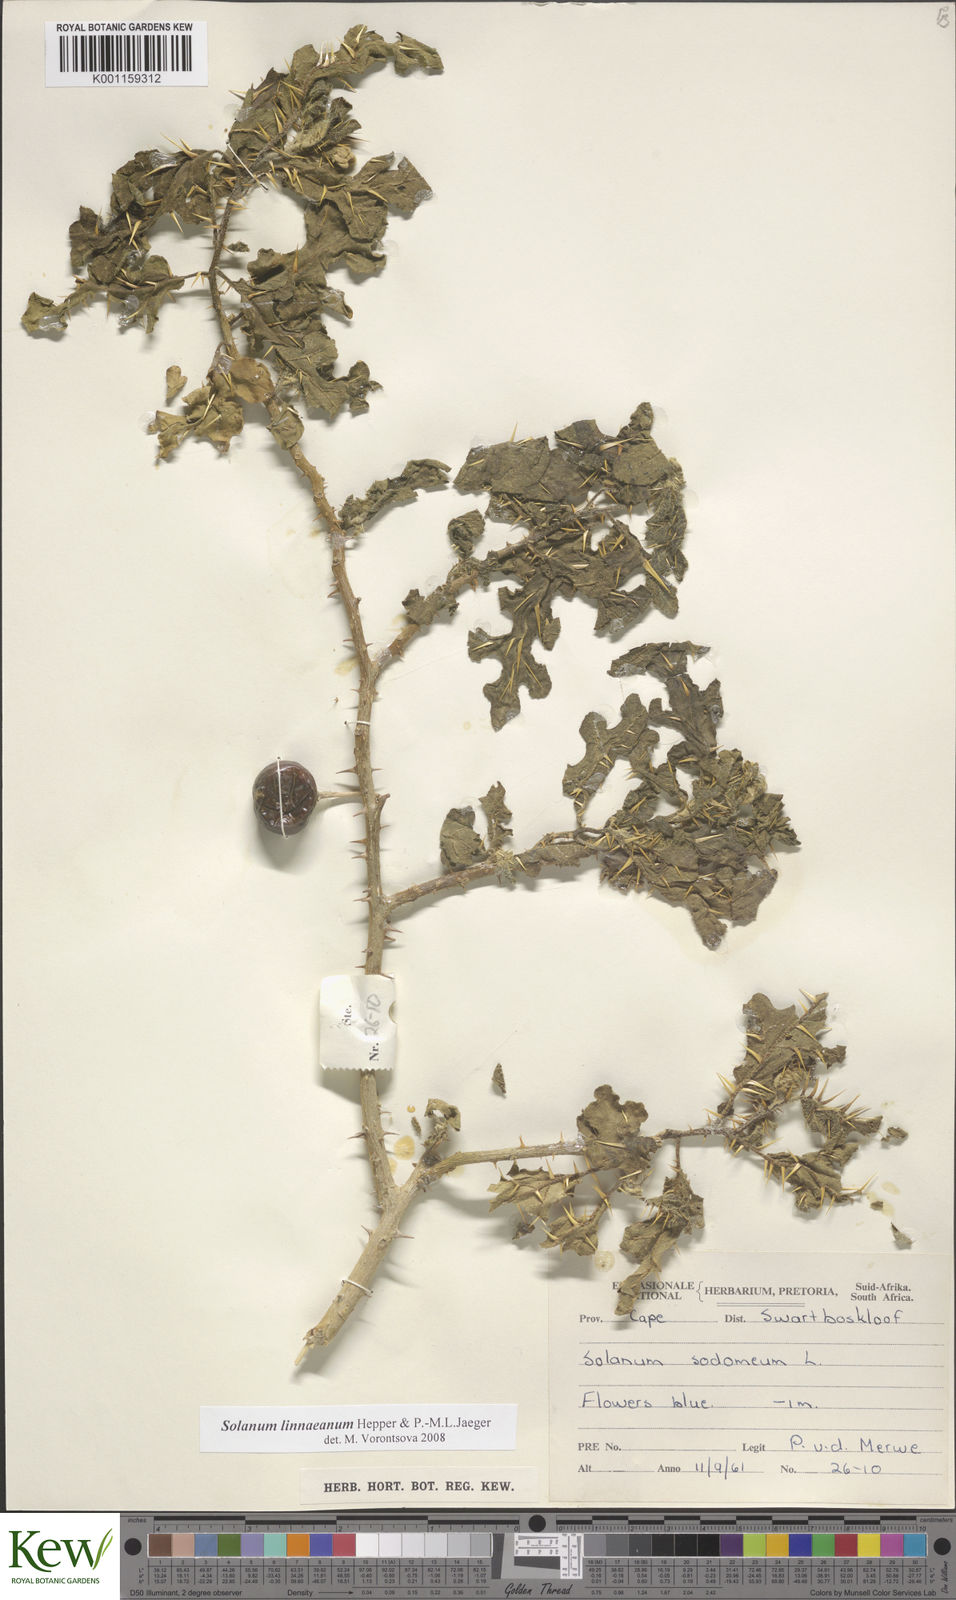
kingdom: Plantae
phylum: Tracheophyta
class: Magnoliopsida
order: Solanales
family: Solanaceae
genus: Solanum
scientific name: Solanum linnaeanum
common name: Nightshade
